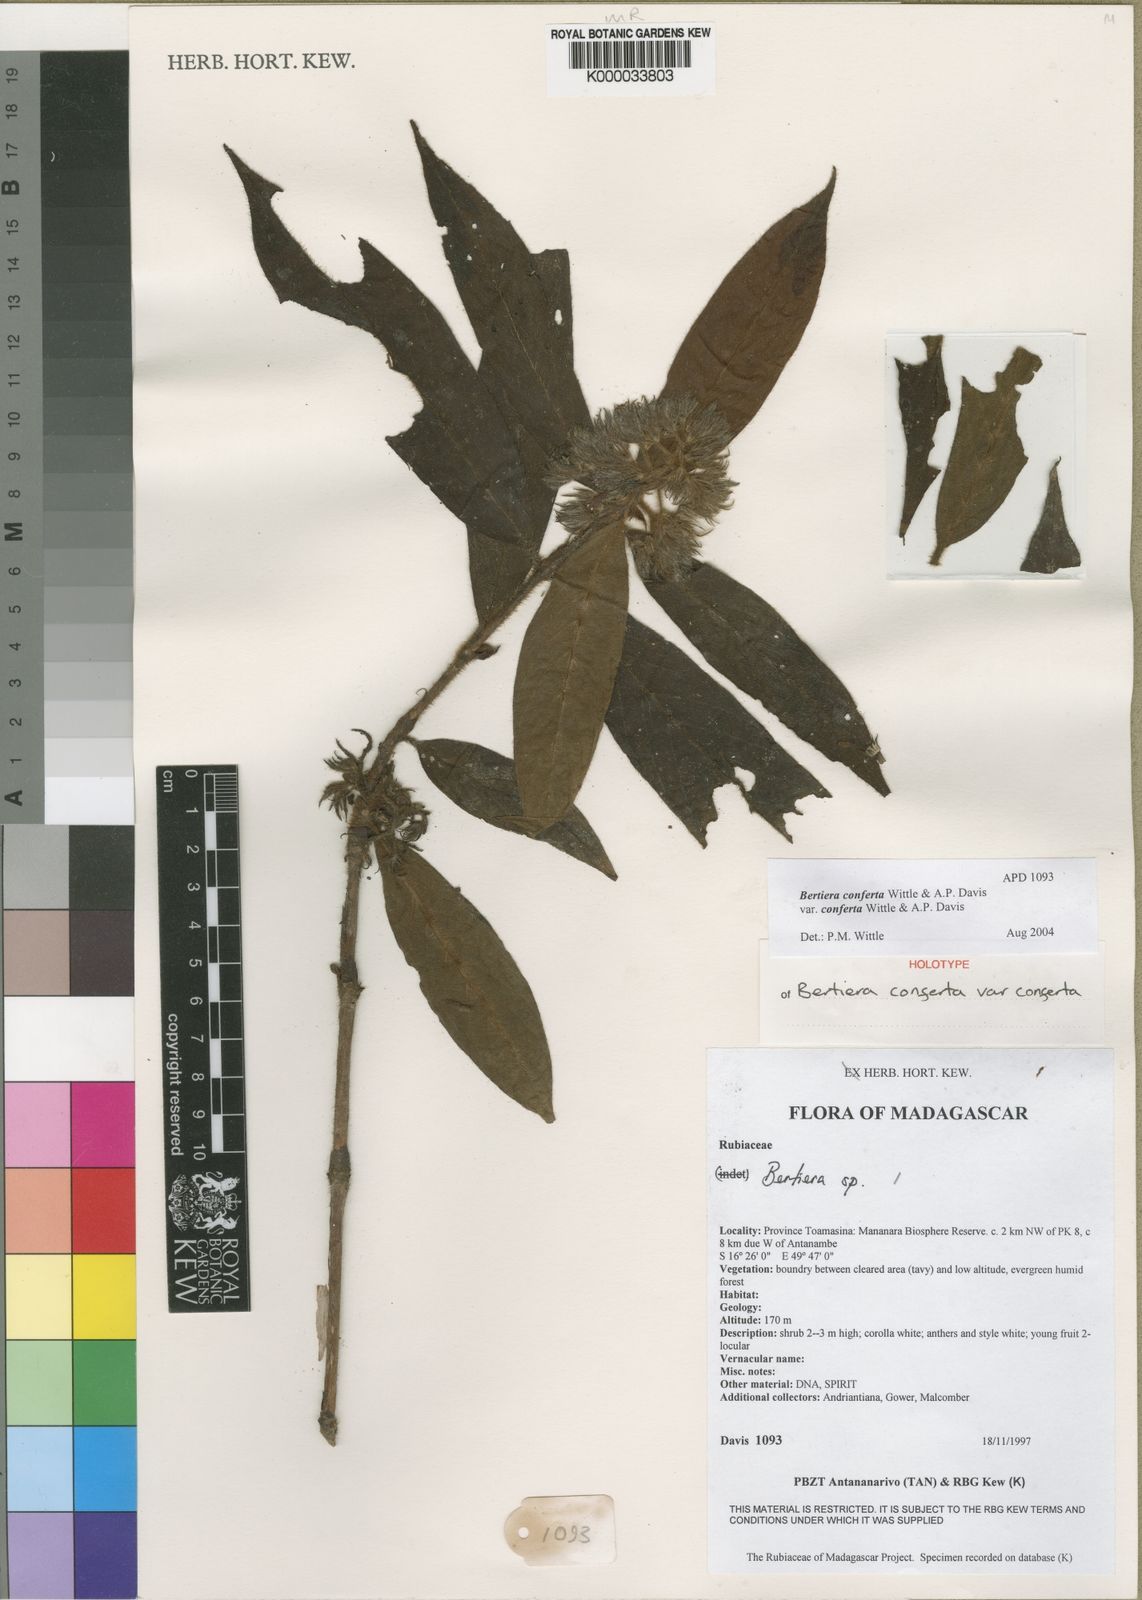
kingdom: Plantae
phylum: Tracheophyta
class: Magnoliopsida
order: Gentianales
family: Rubiaceae
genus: Bertiera
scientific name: Bertiera crinita
